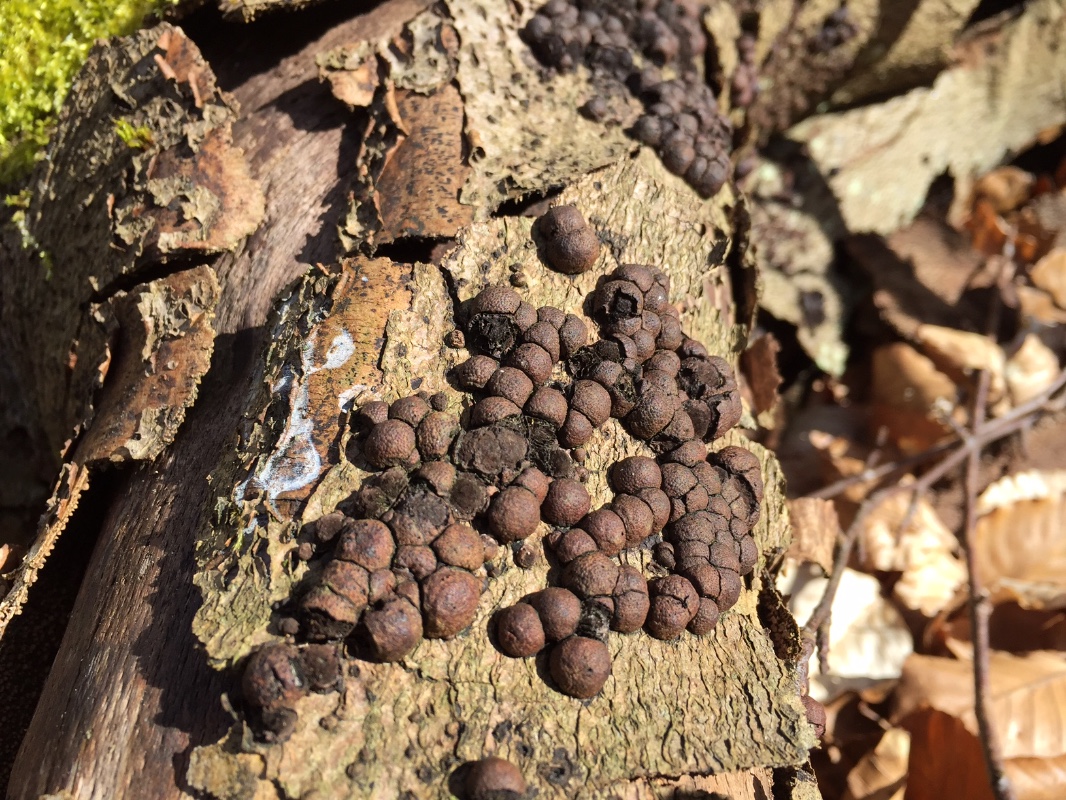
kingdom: Fungi
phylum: Ascomycota
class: Sordariomycetes
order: Xylariales
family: Hypoxylaceae
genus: Hypoxylon
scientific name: Hypoxylon fragiforme
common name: kuljordbær
